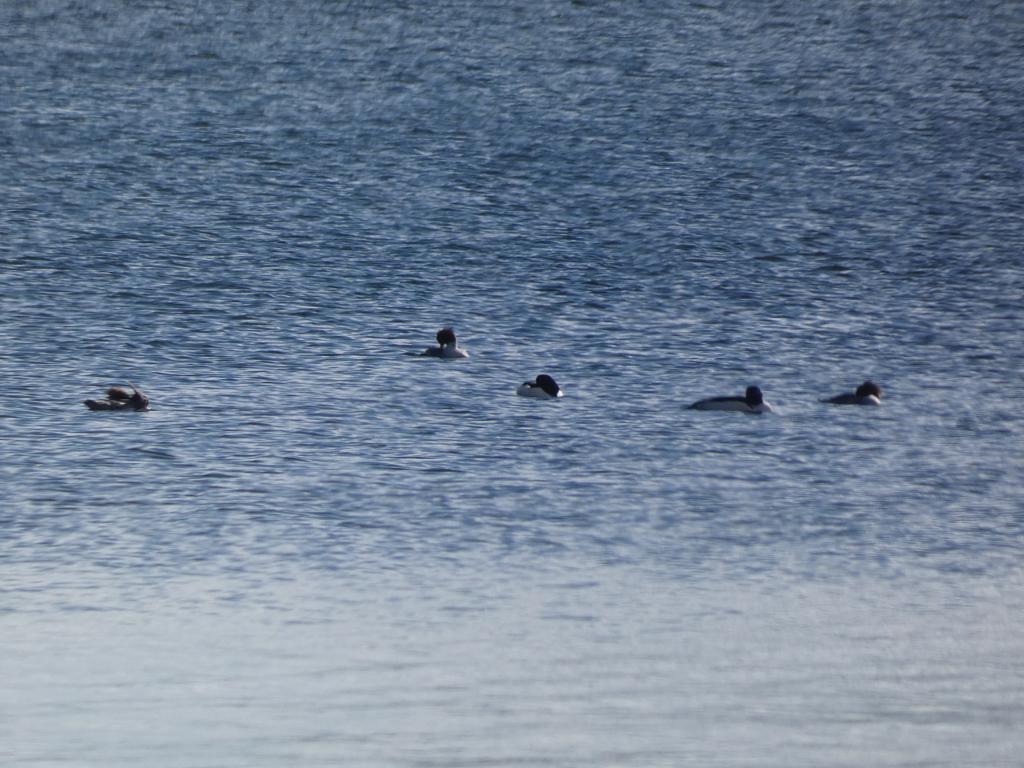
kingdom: Animalia
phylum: Chordata
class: Aves
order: Anseriformes
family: Anatidae
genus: Mergus
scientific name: Mergus merganser
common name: Stor skallesluger
